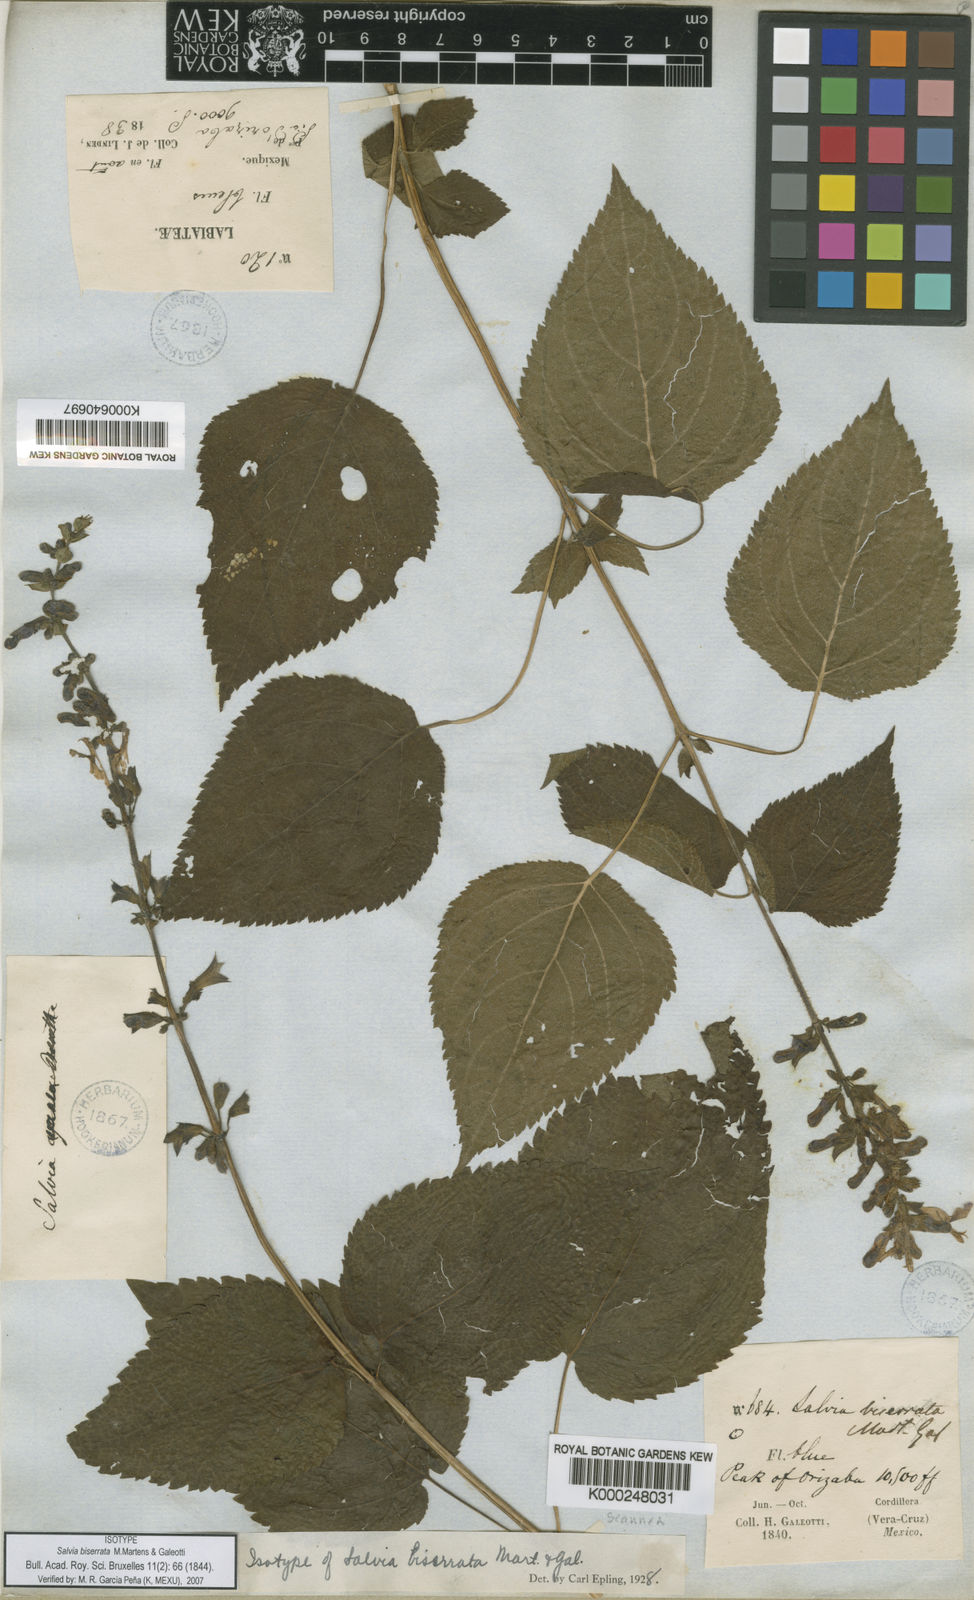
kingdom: Plantae
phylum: Tracheophyta
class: Magnoliopsida
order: Lamiales
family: Lamiaceae
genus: Salvia
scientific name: Salvia biserrata
